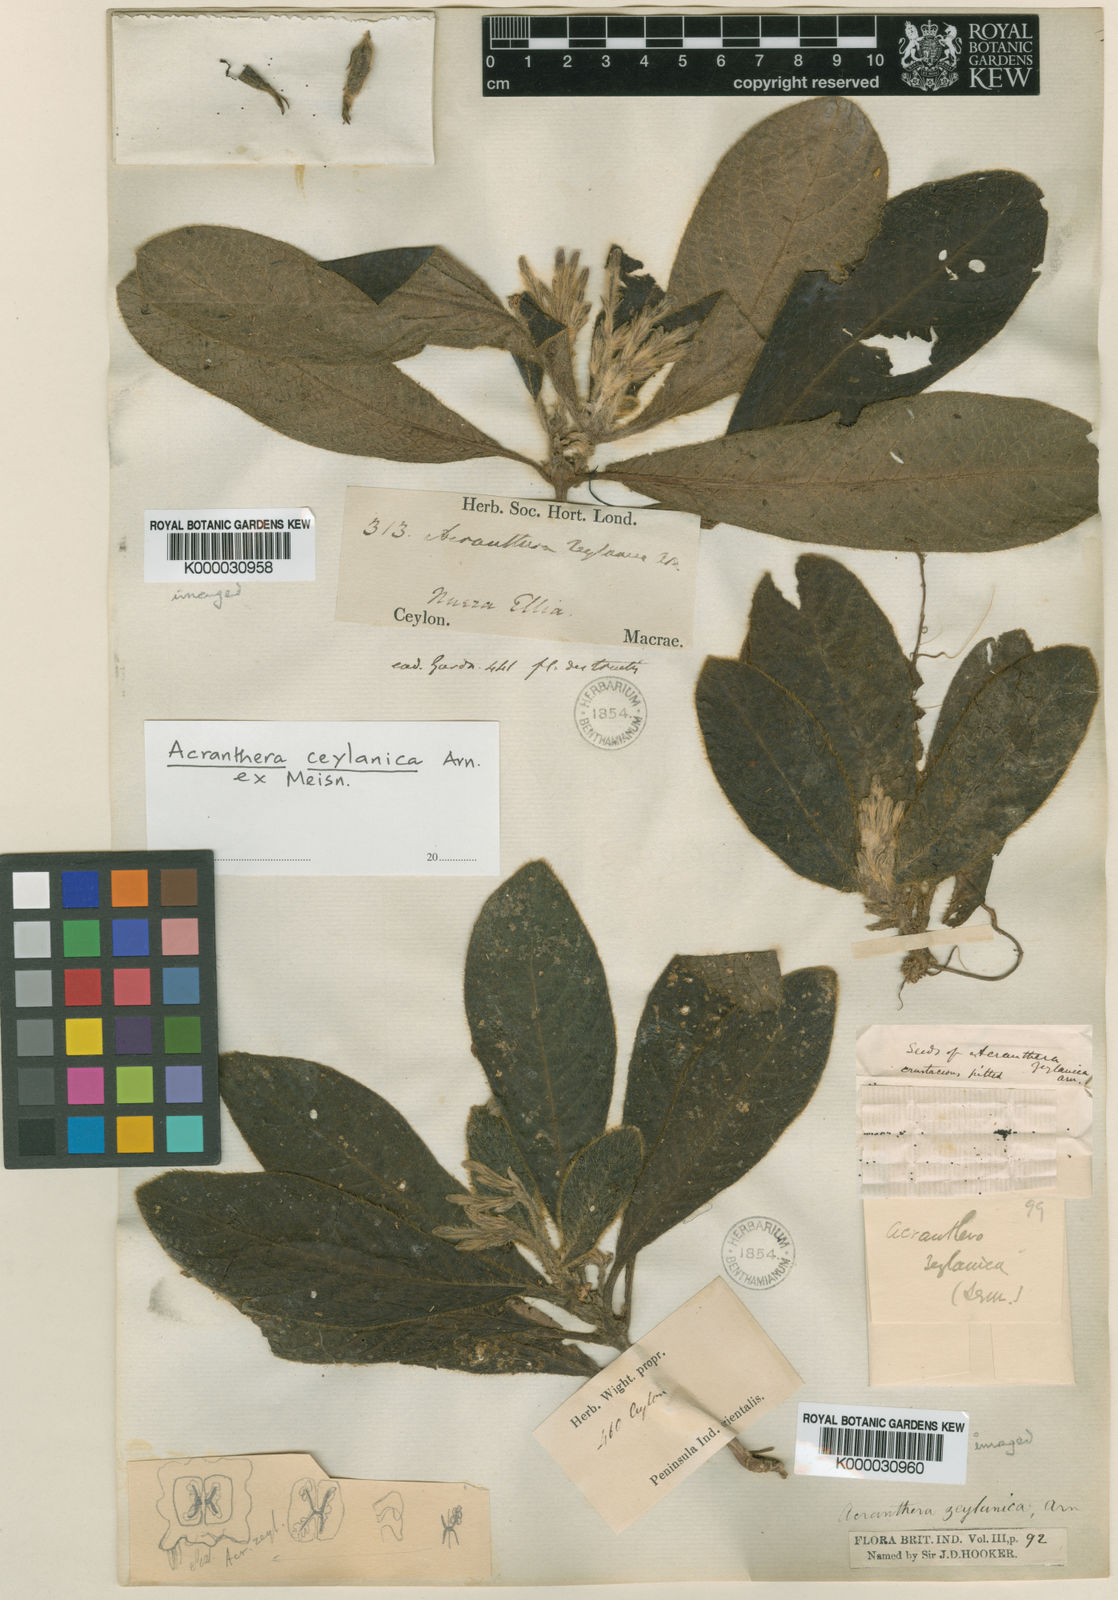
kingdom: Plantae
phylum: Tracheophyta
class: Magnoliopsida
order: Gentianales
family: Rubiaceae
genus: Acranthera
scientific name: Acranthera ceylanica
